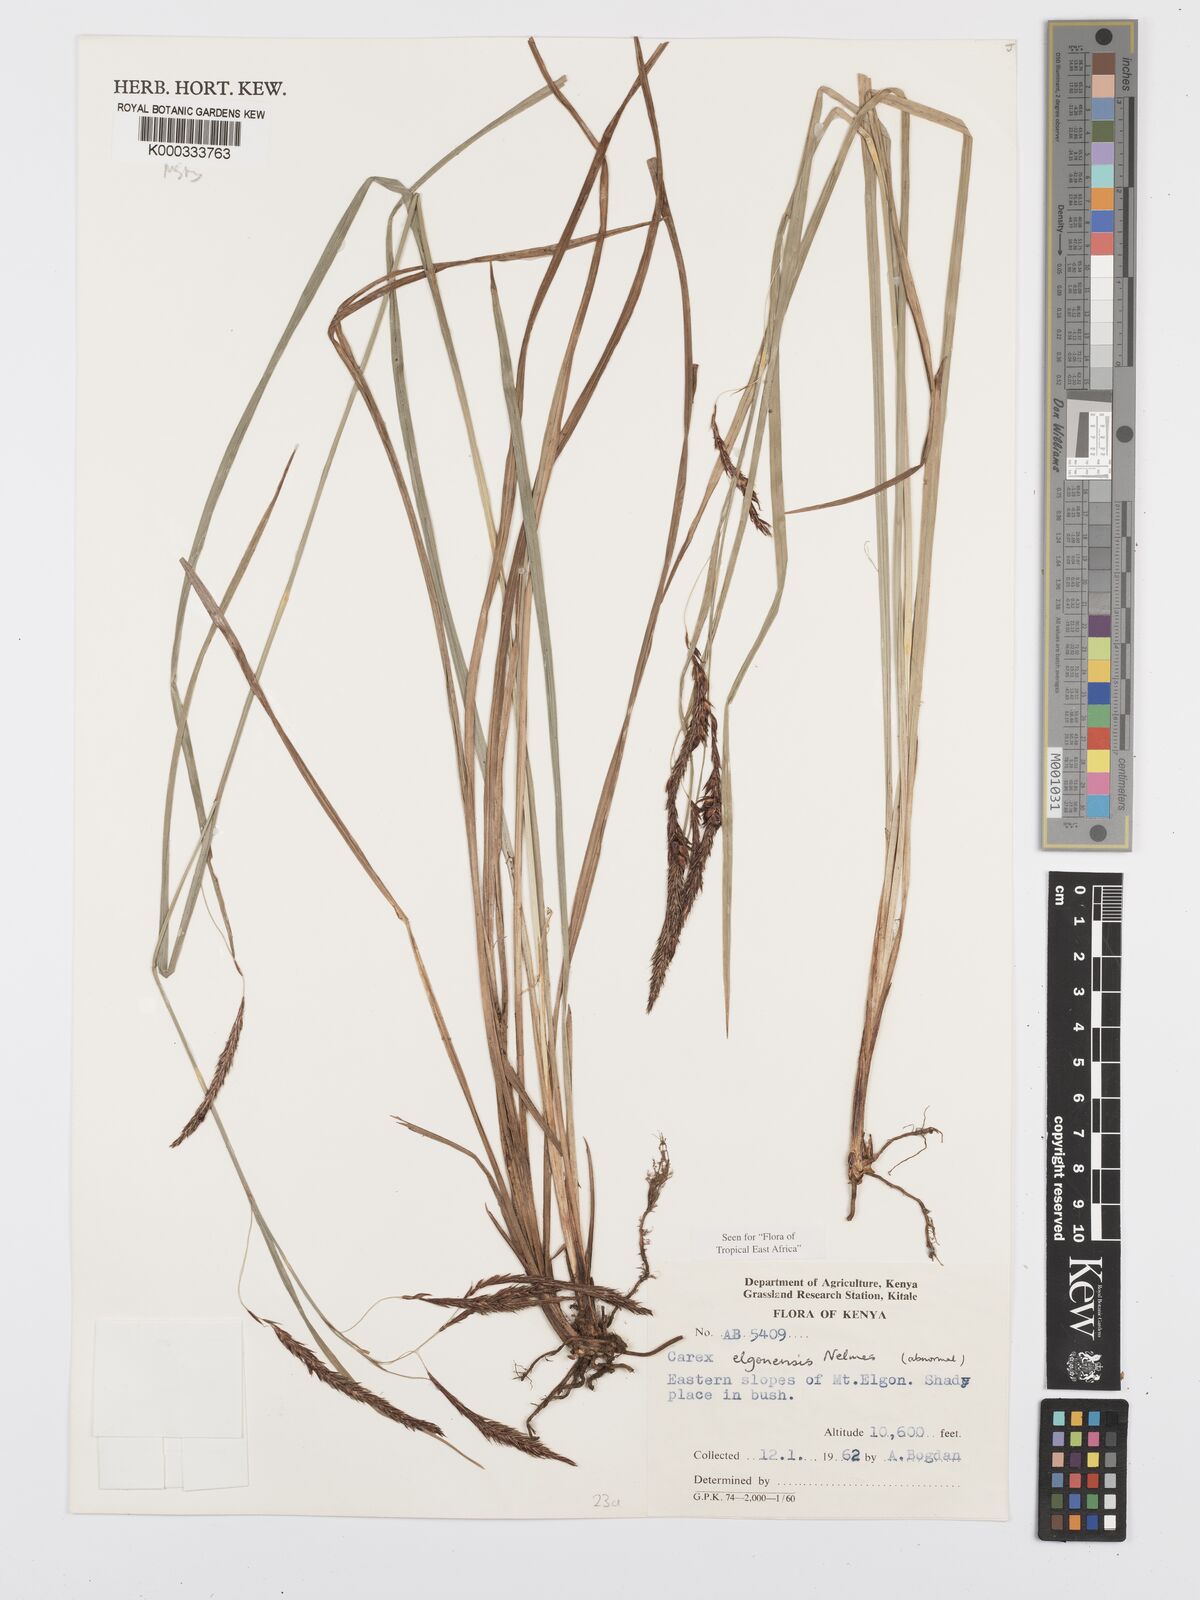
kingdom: Plantae
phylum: Tracheophyta
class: Liliopsida
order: Poales
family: Cyperaceae
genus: Carex
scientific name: Carex elgonensis
